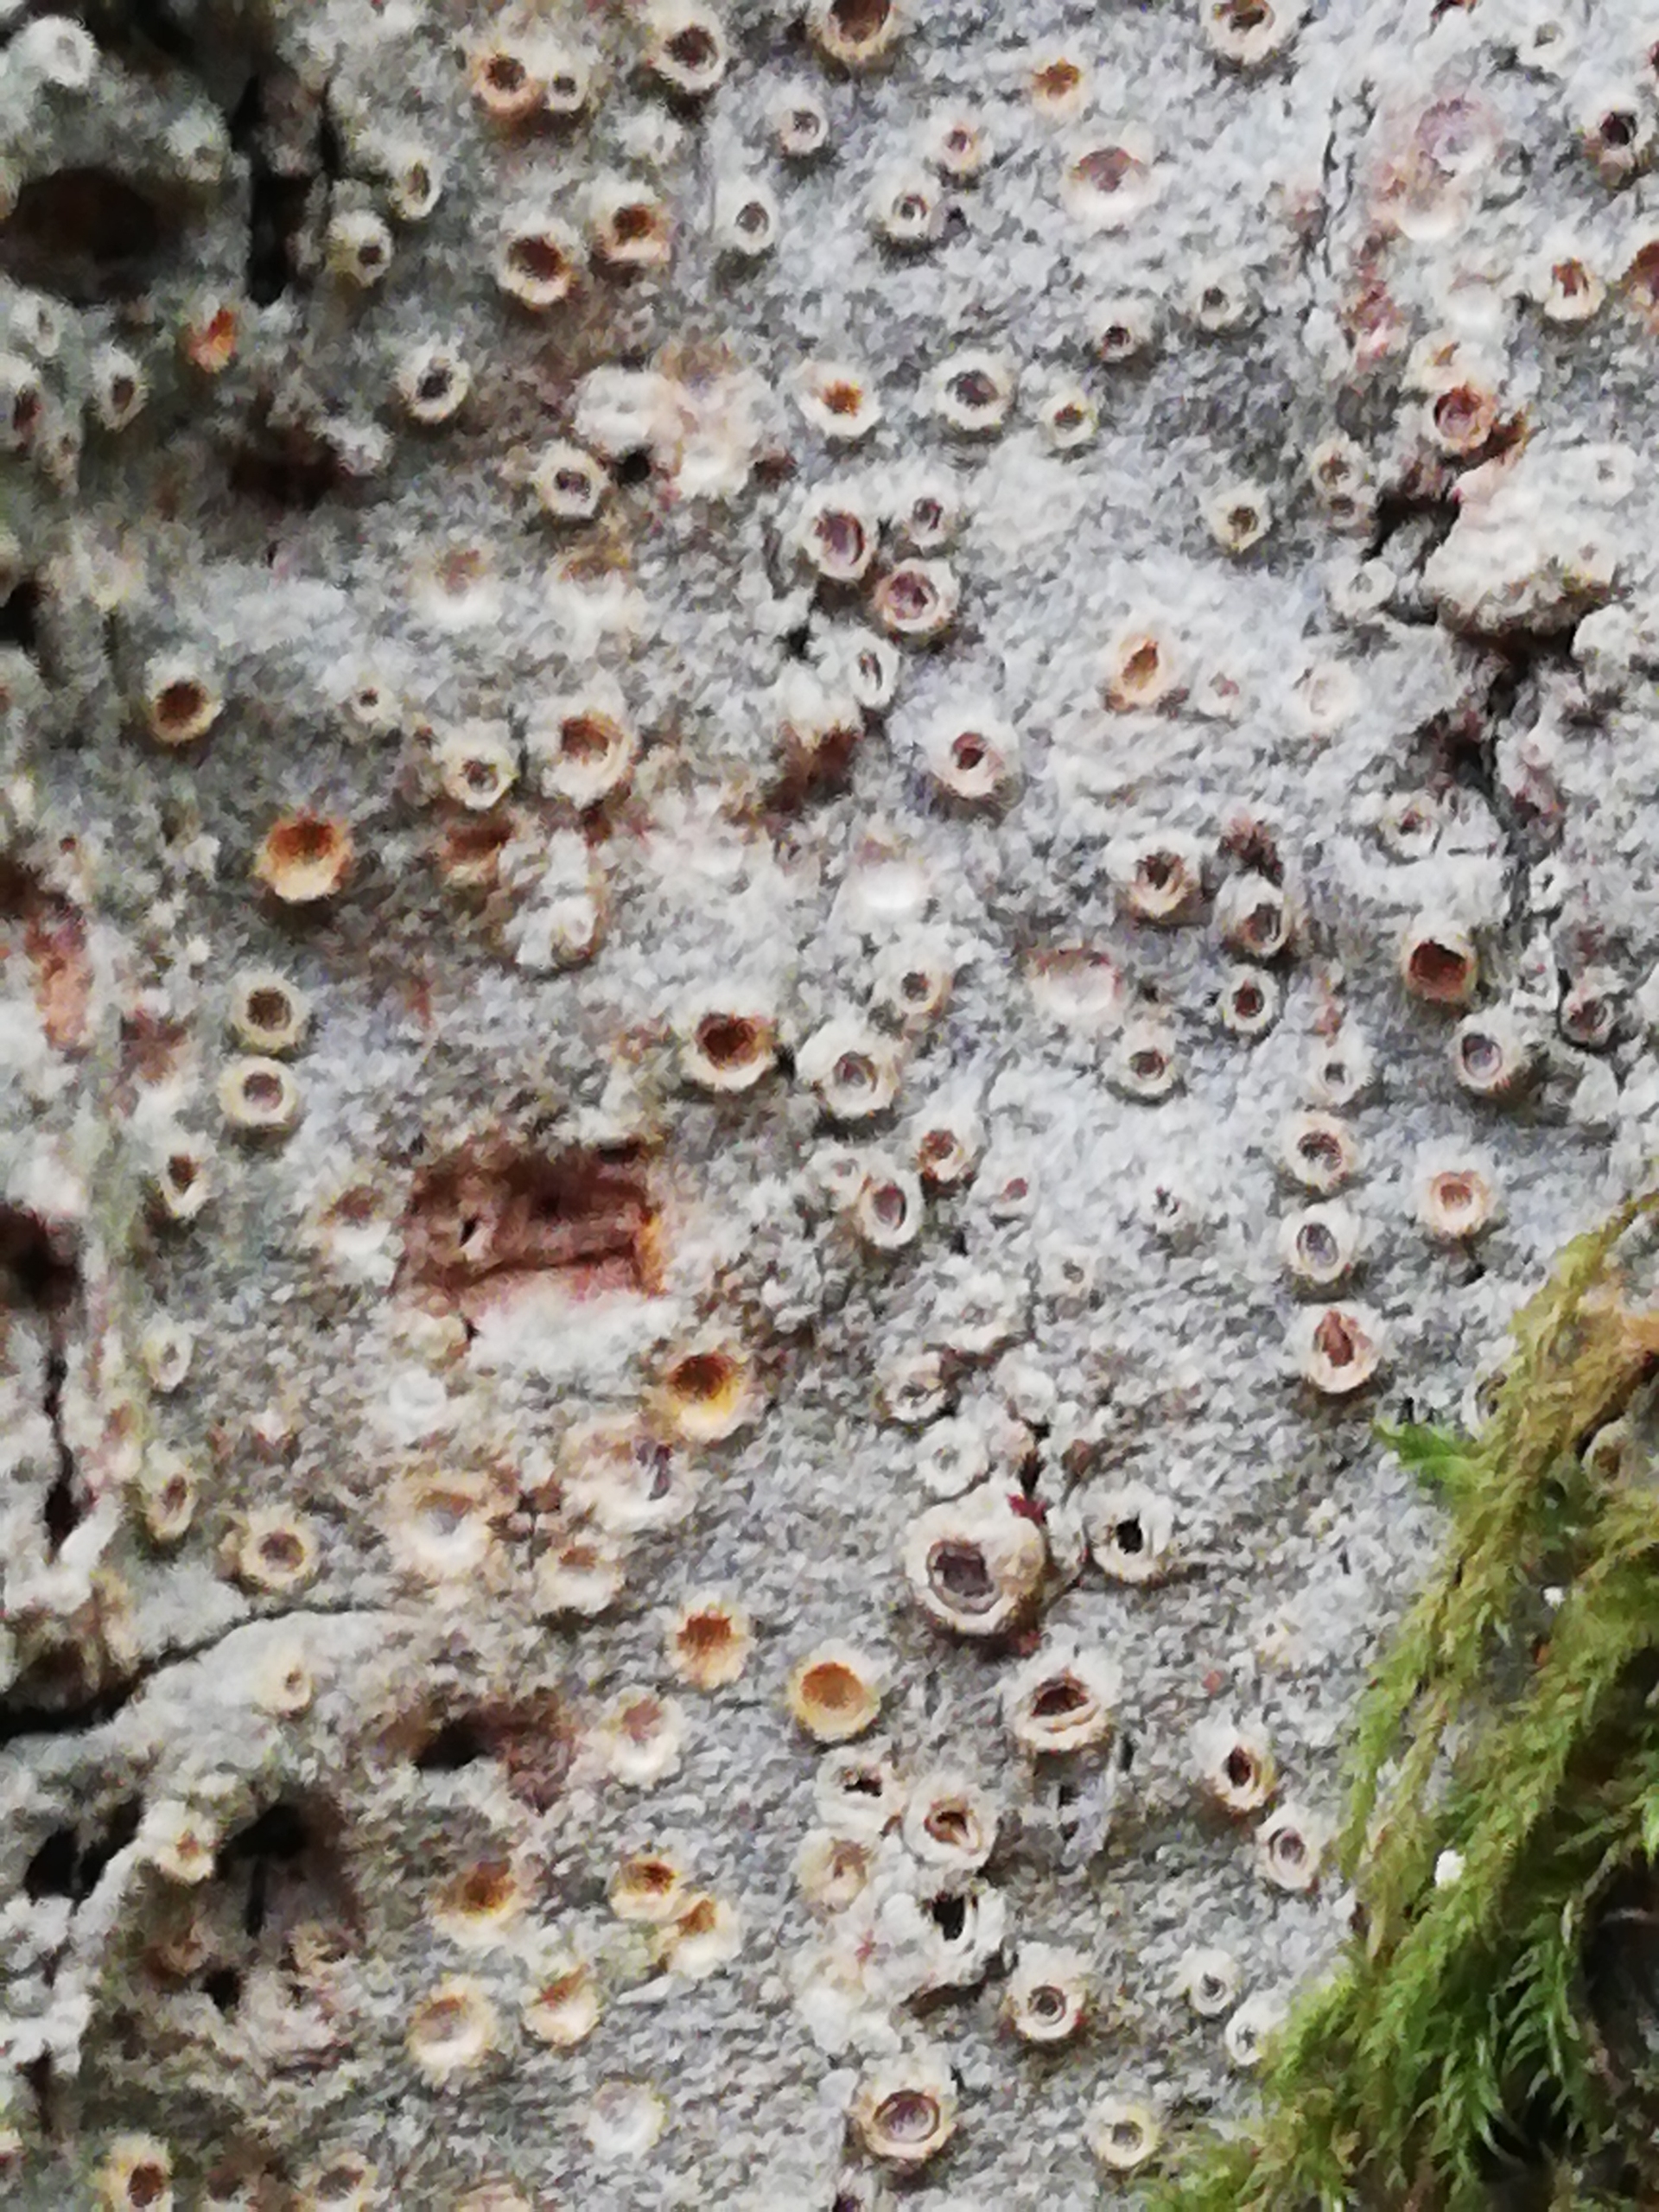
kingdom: Fungi
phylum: Ascomycota
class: Lecanoromycetes
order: Ostropales
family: Graphidaceae
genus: Thelotrema
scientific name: Thelotrema lepadinum
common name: Almindelig slørkantlav
